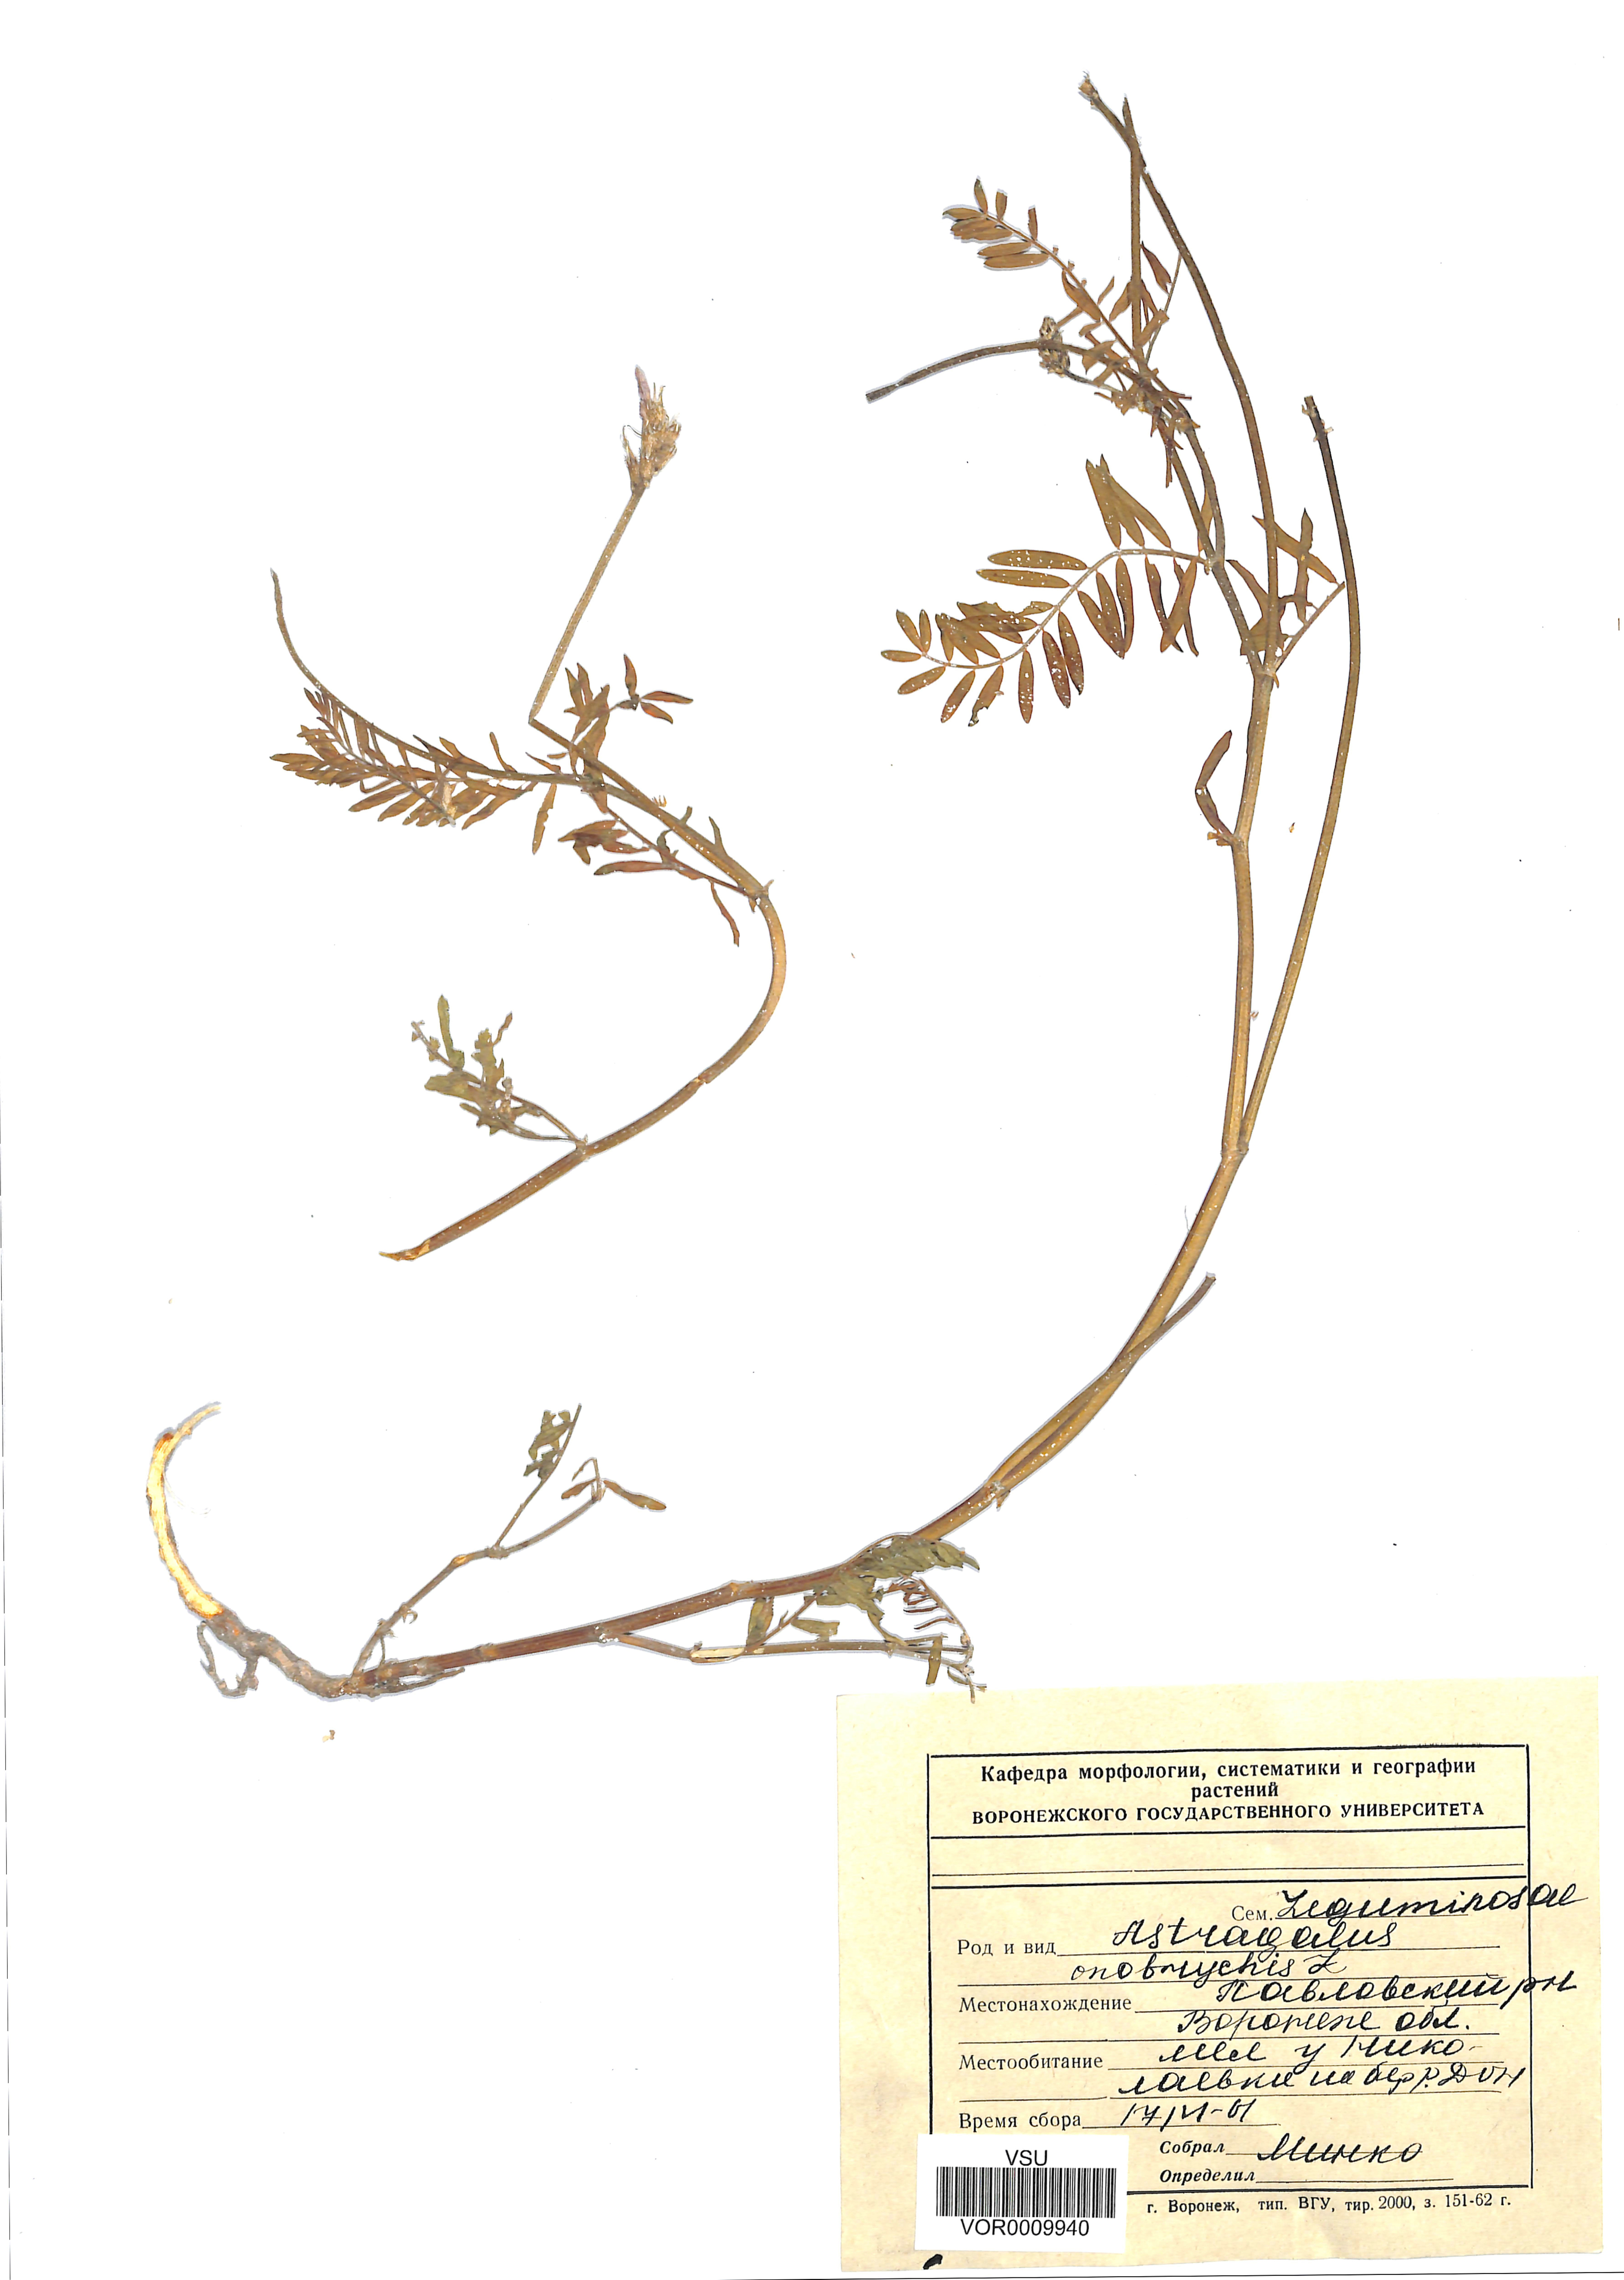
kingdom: Plantae
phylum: Tracheophyta
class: Magnoliopsida
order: Fabales
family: Fabaceae
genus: Astragalus
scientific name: Astragalus onobrychis
